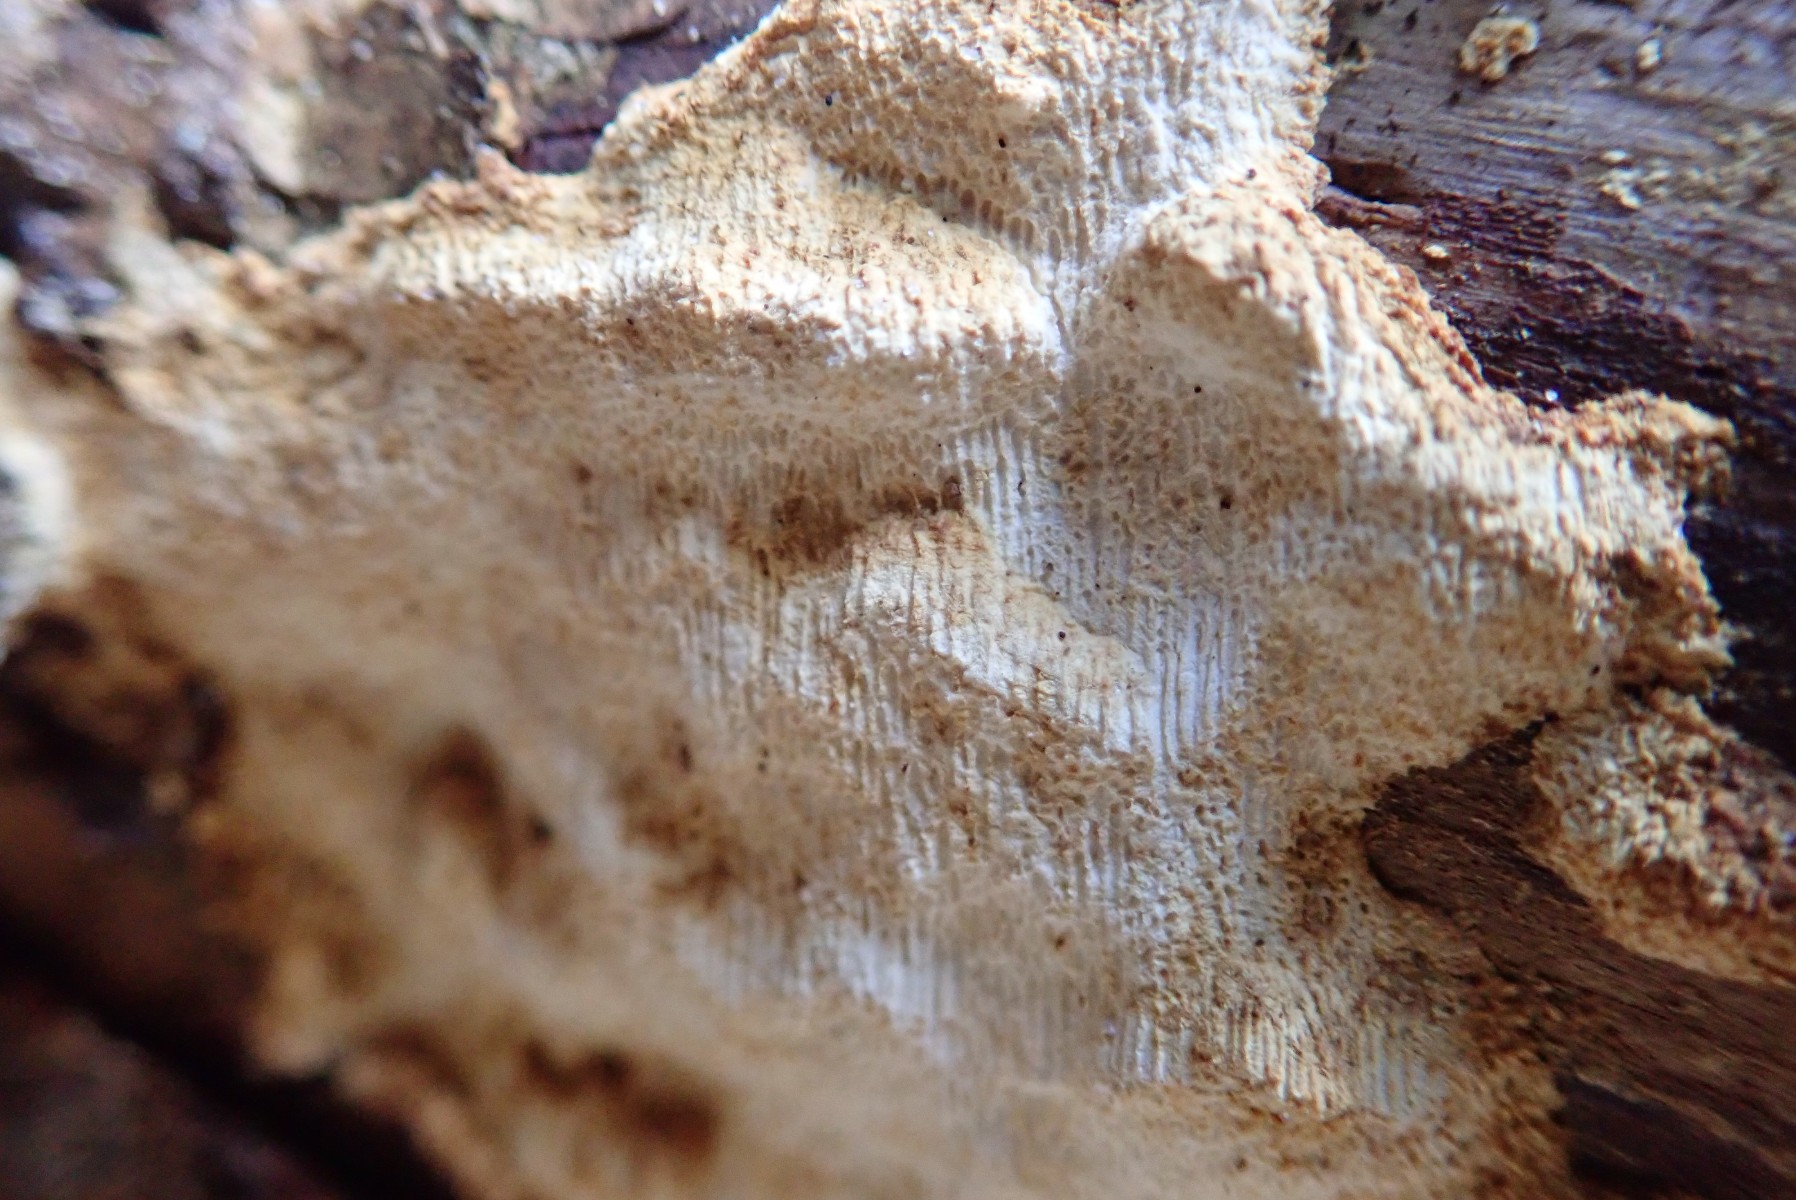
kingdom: Fungi
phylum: Basidiomycota
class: Agaricomycetes
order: Polyporales
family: Fomitopsidaceae
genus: Neoantrodia
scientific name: Neoantrodia serialis
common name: række-sejporesvamp
